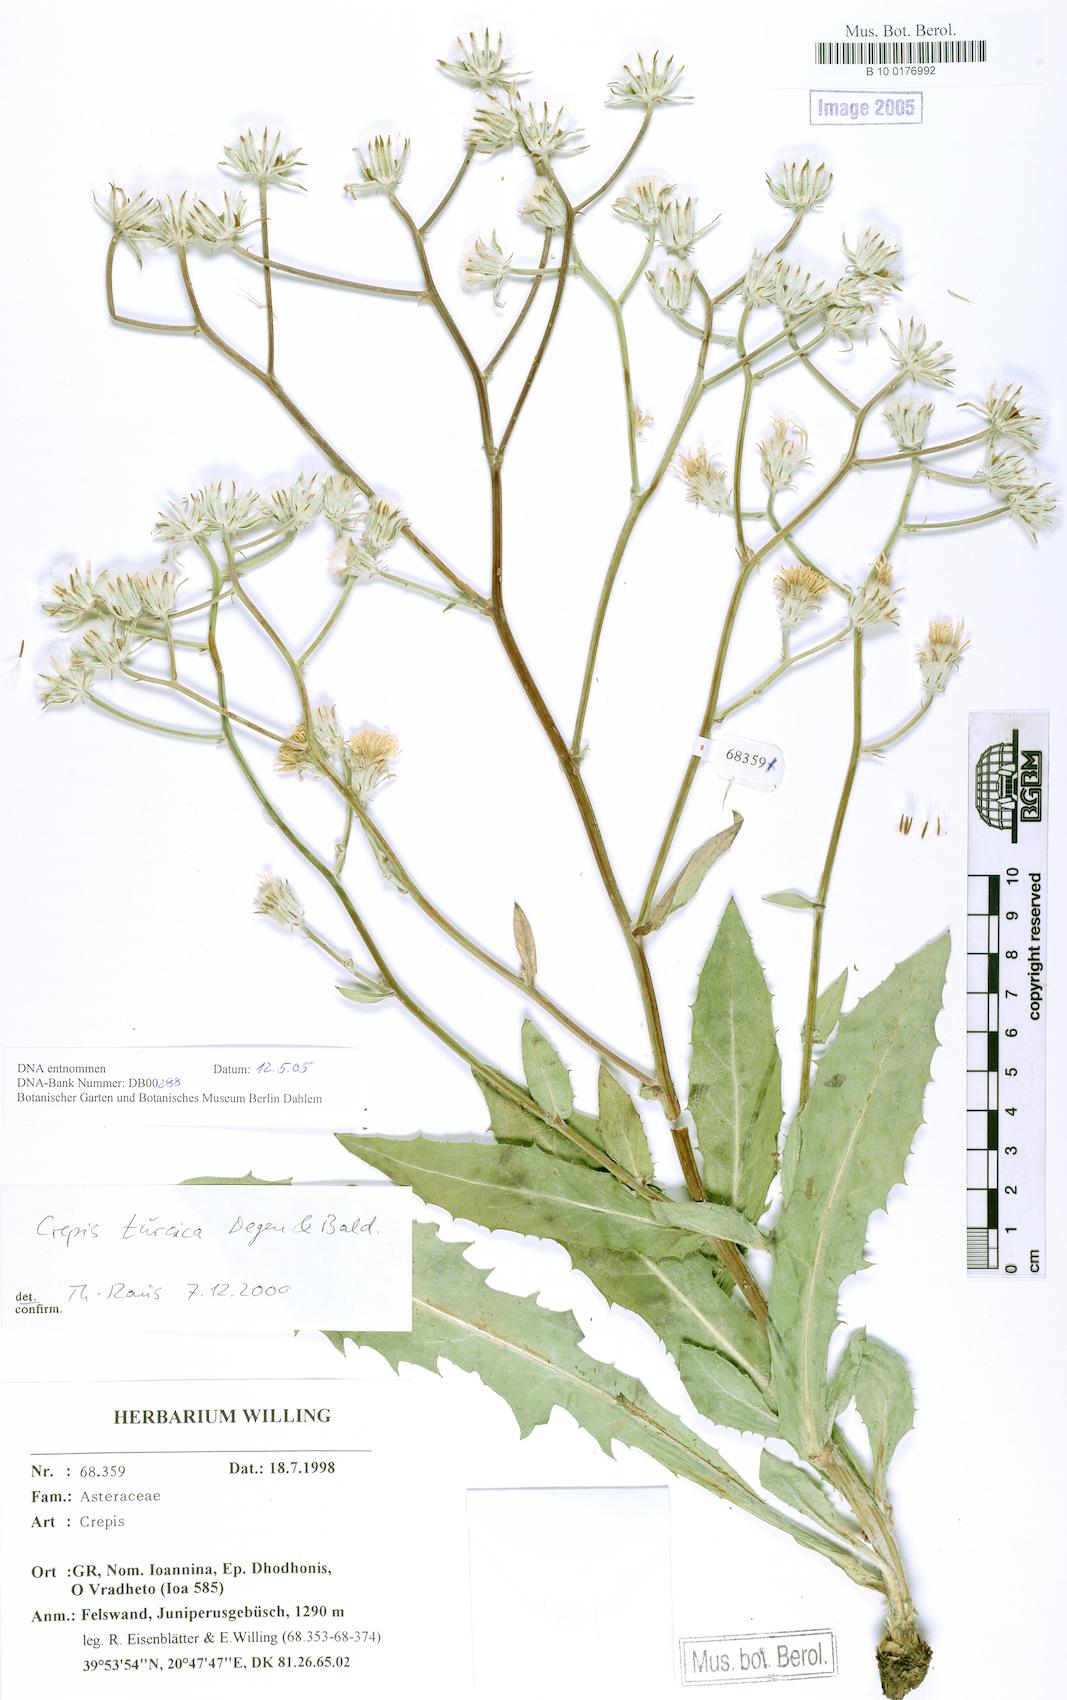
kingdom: Plantae
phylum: Tracheophyta
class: Magnoliopsida
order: Asterales
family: Asteraceae
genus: Crepis
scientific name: Crepis turcica
